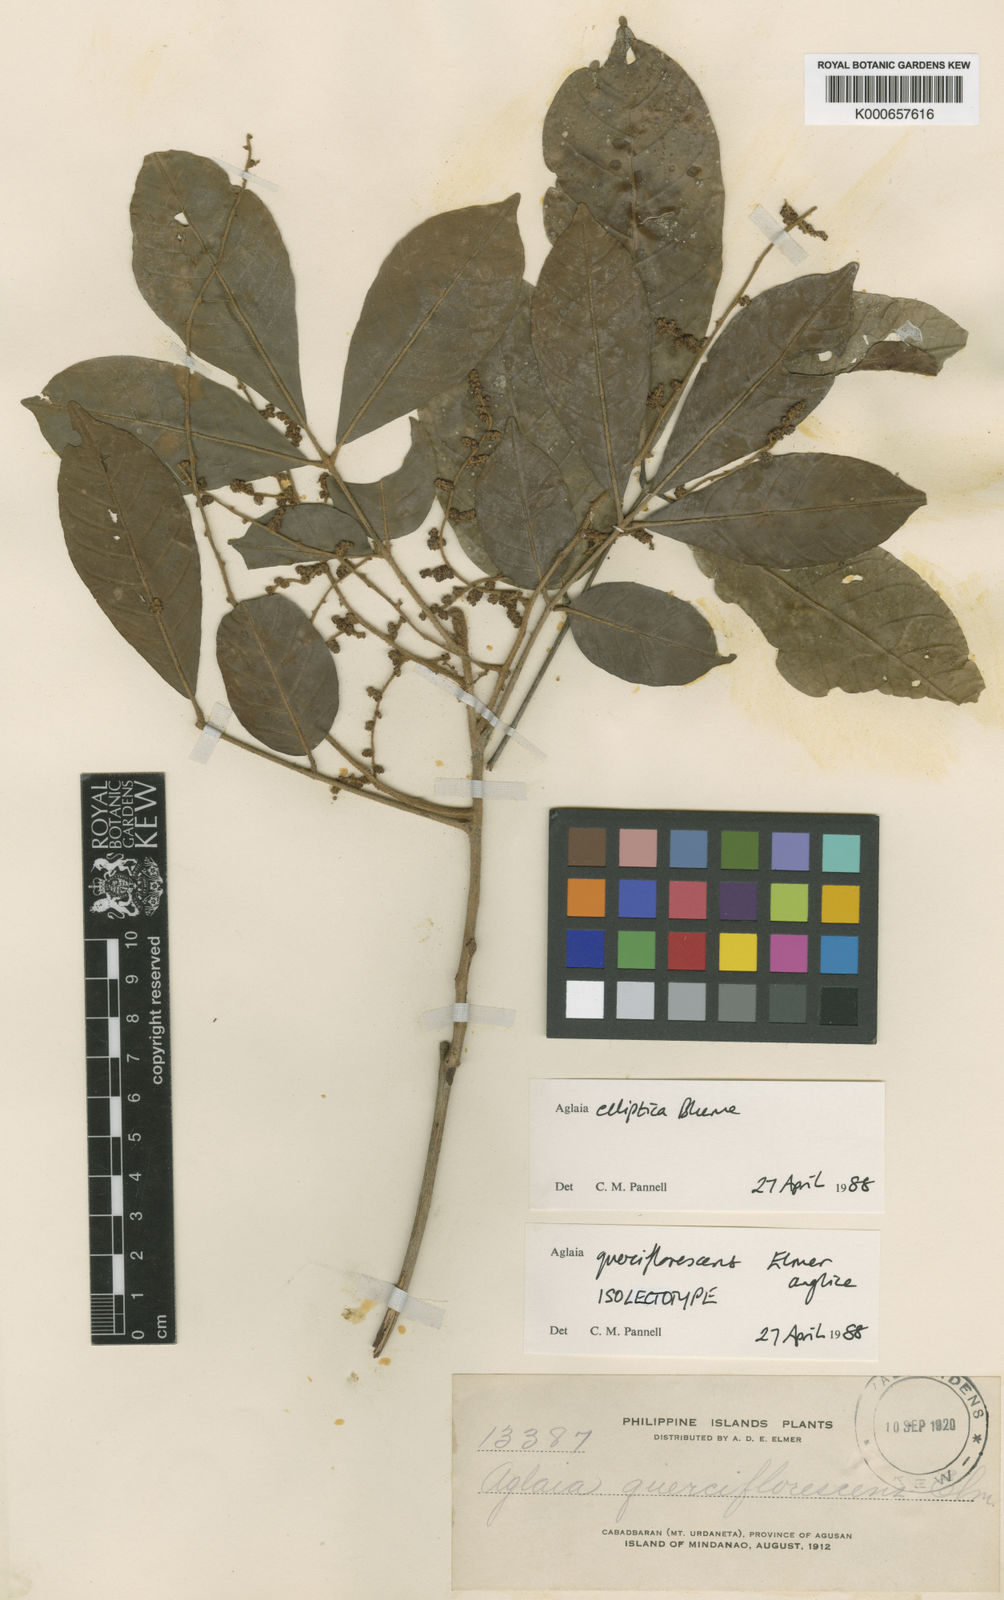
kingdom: Plantae
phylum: Tracheophyta
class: Magnoliopsida
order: Sapindales
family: Meliaceae
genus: Aglaia
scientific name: Aglaia elliptica
